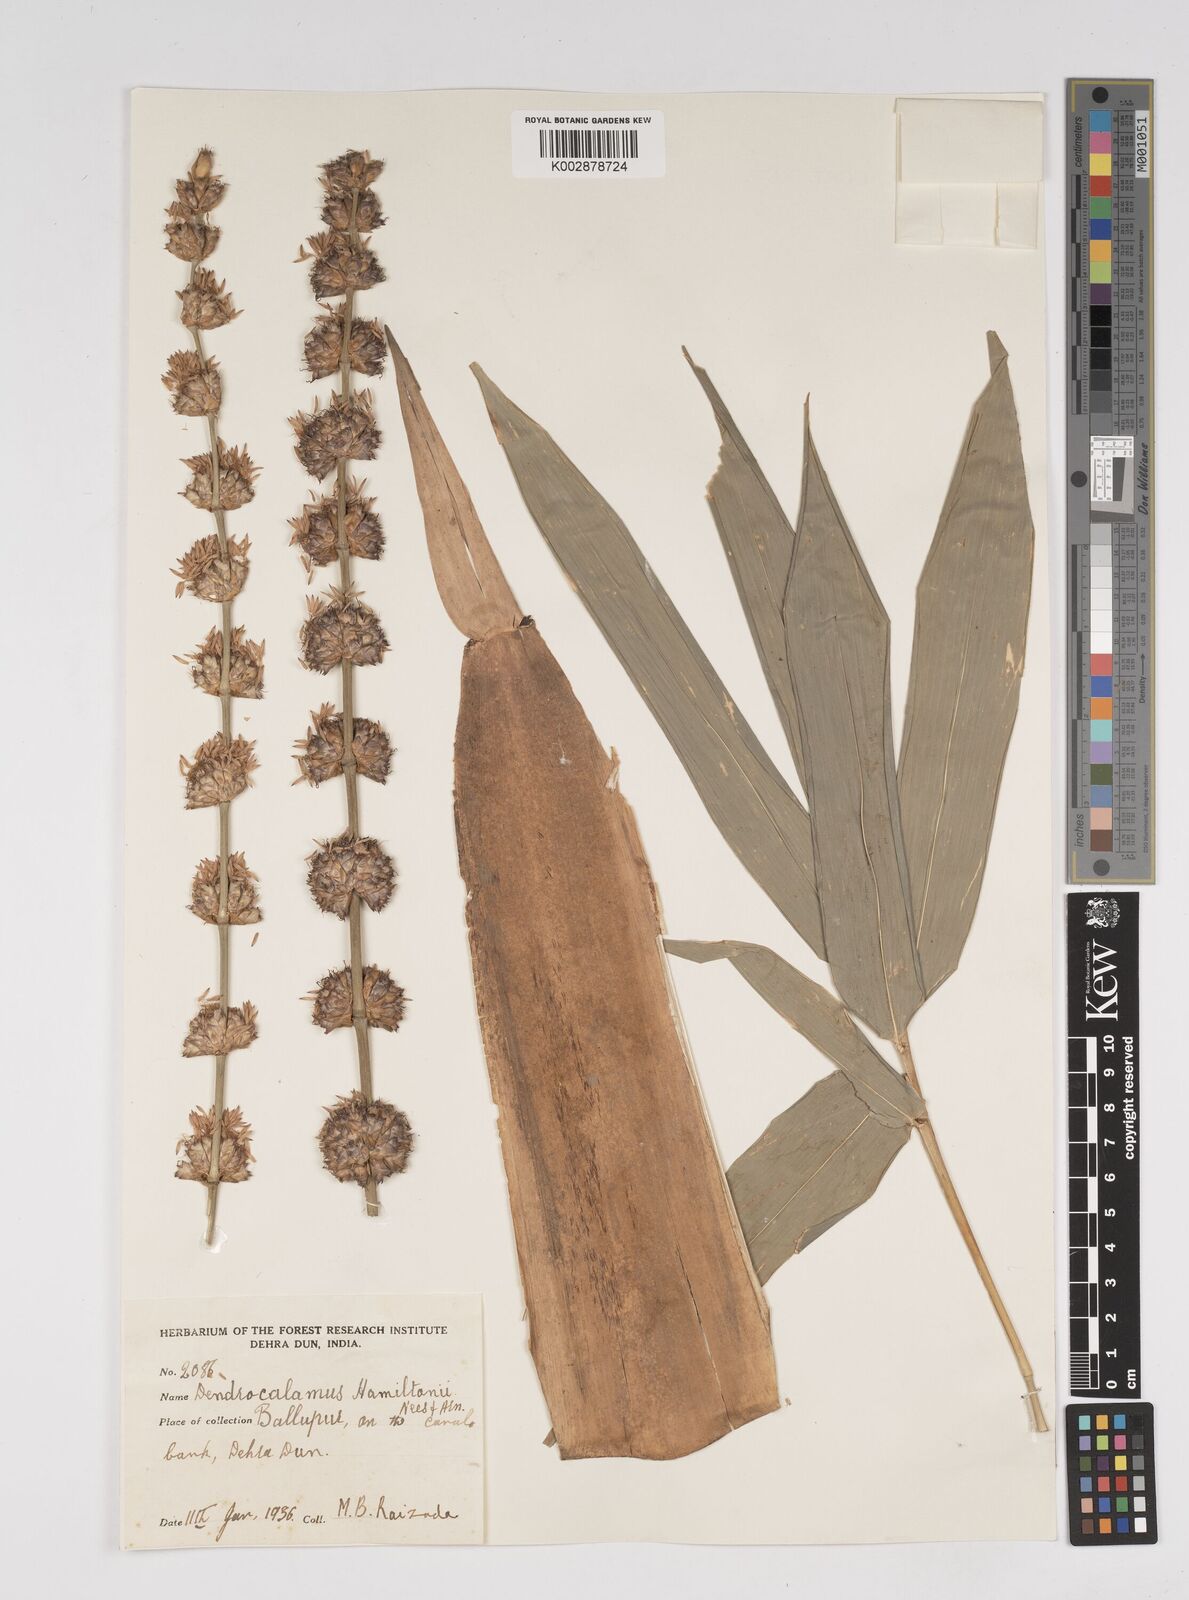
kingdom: Plantae
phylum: Tracheophyta
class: Liliopsida
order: Poales
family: Poaceae
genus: Dendrocalamus
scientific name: Dendrocalamus hamiltonii
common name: Tama bamboo
